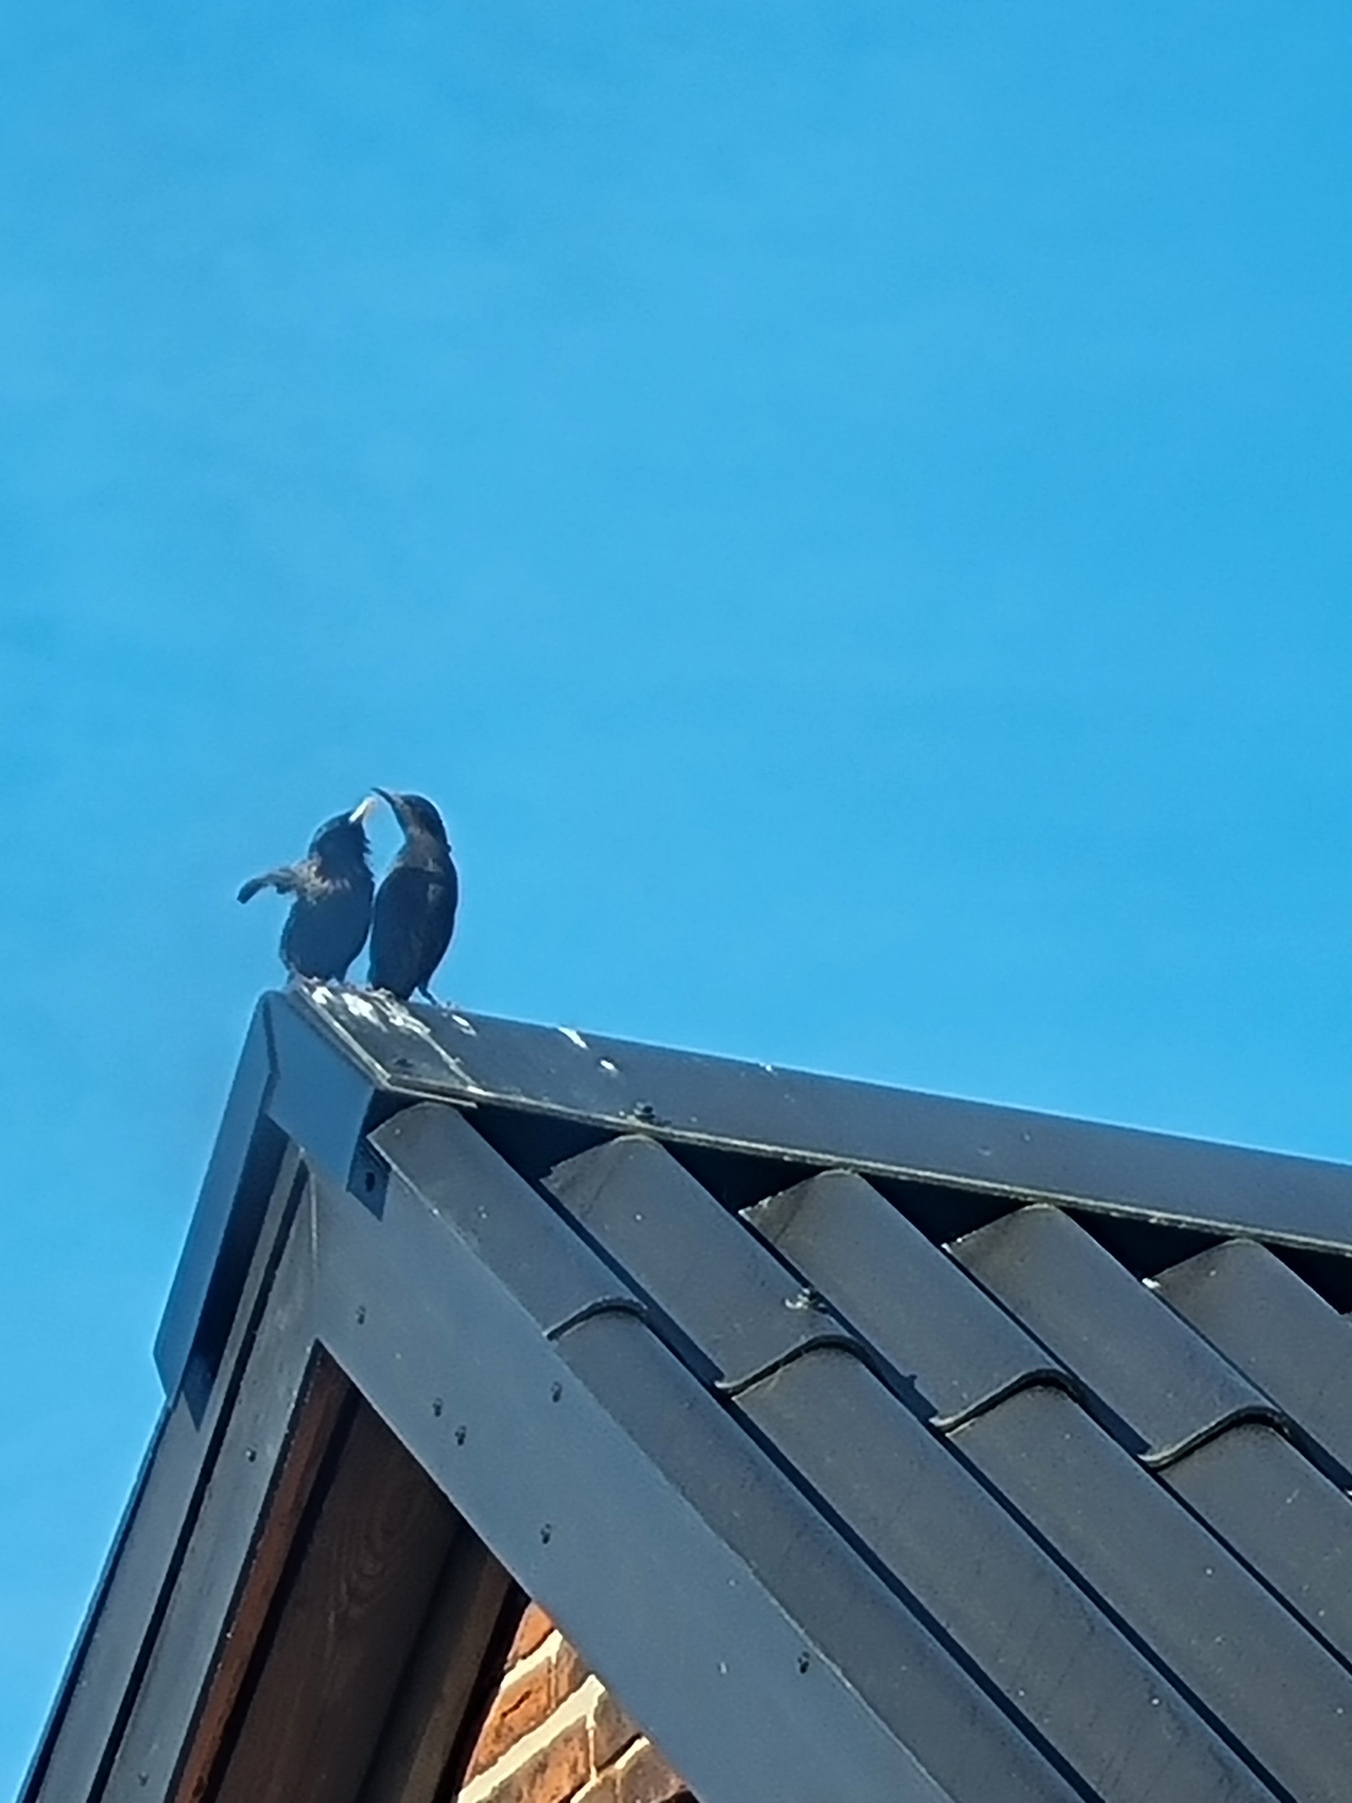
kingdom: Animalia
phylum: Chordata
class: Aves
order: Passeriformes
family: Sturnidae
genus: Sturnus
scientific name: Sturnus vulgaris
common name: Stær
